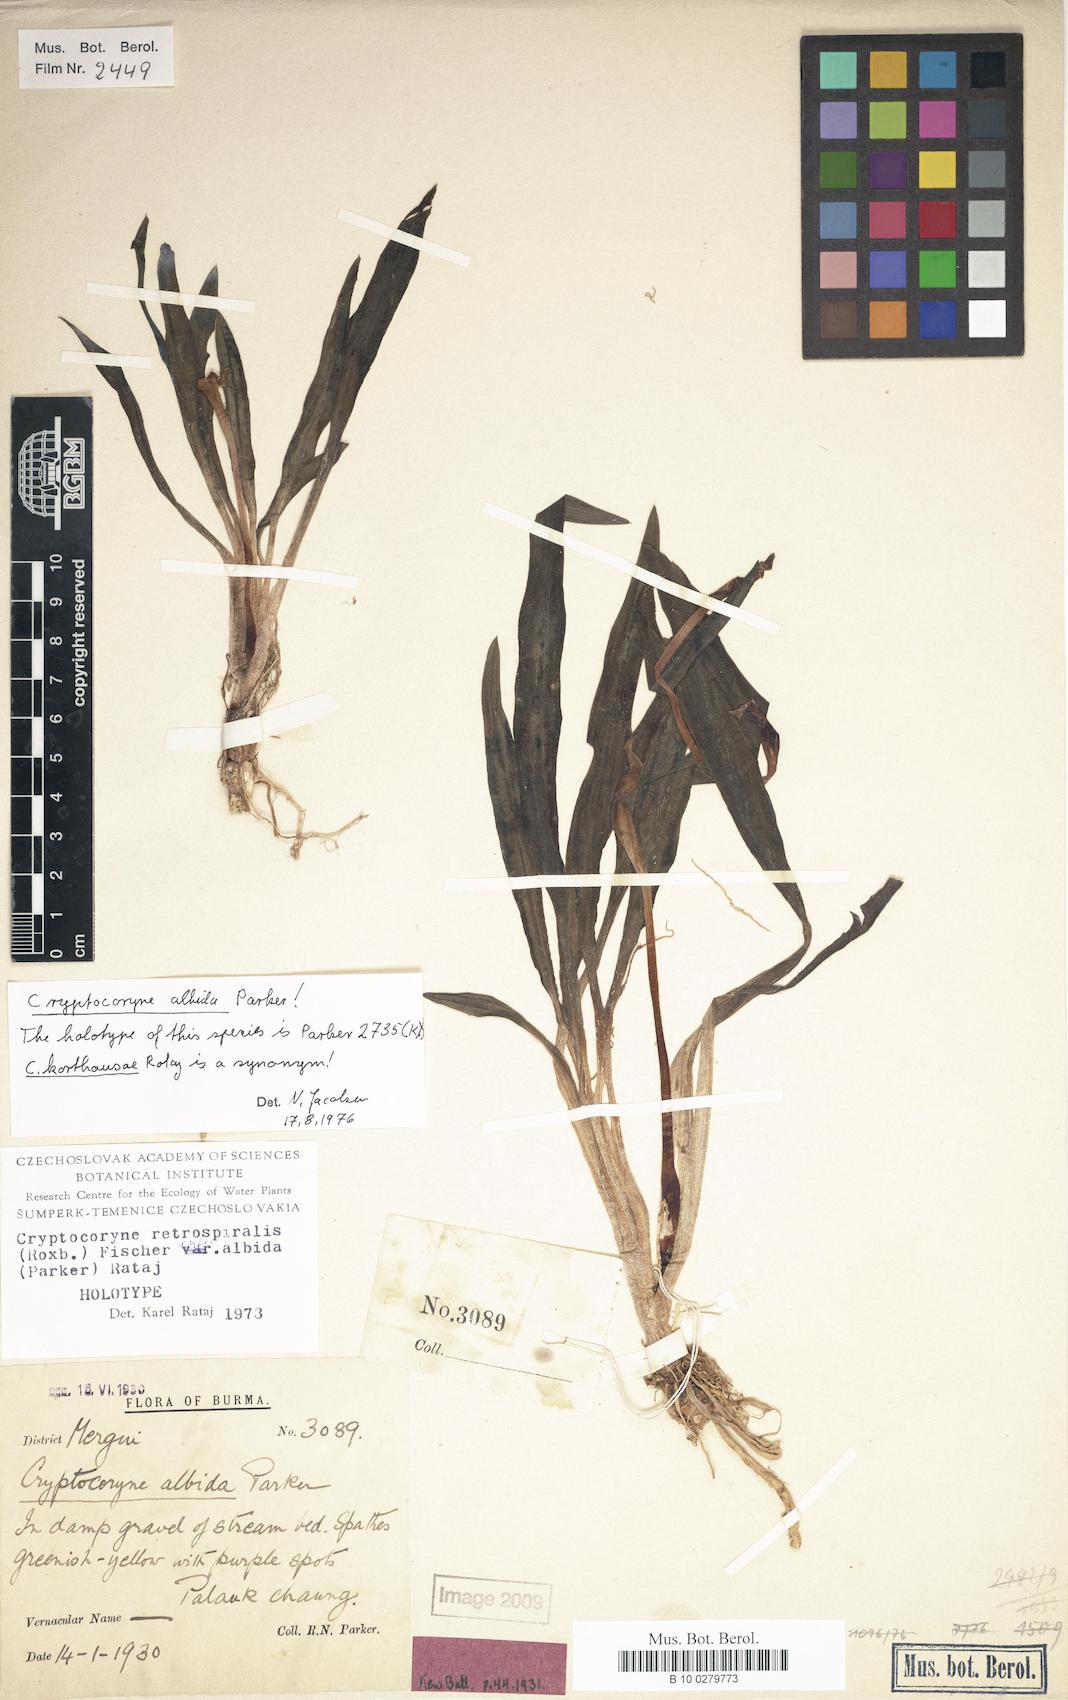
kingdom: Plantae
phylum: Tracheophyta
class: Liliopsida
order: Alismatales
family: Araceae
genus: Cryptocoryne
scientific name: Cryptocoryne albida
